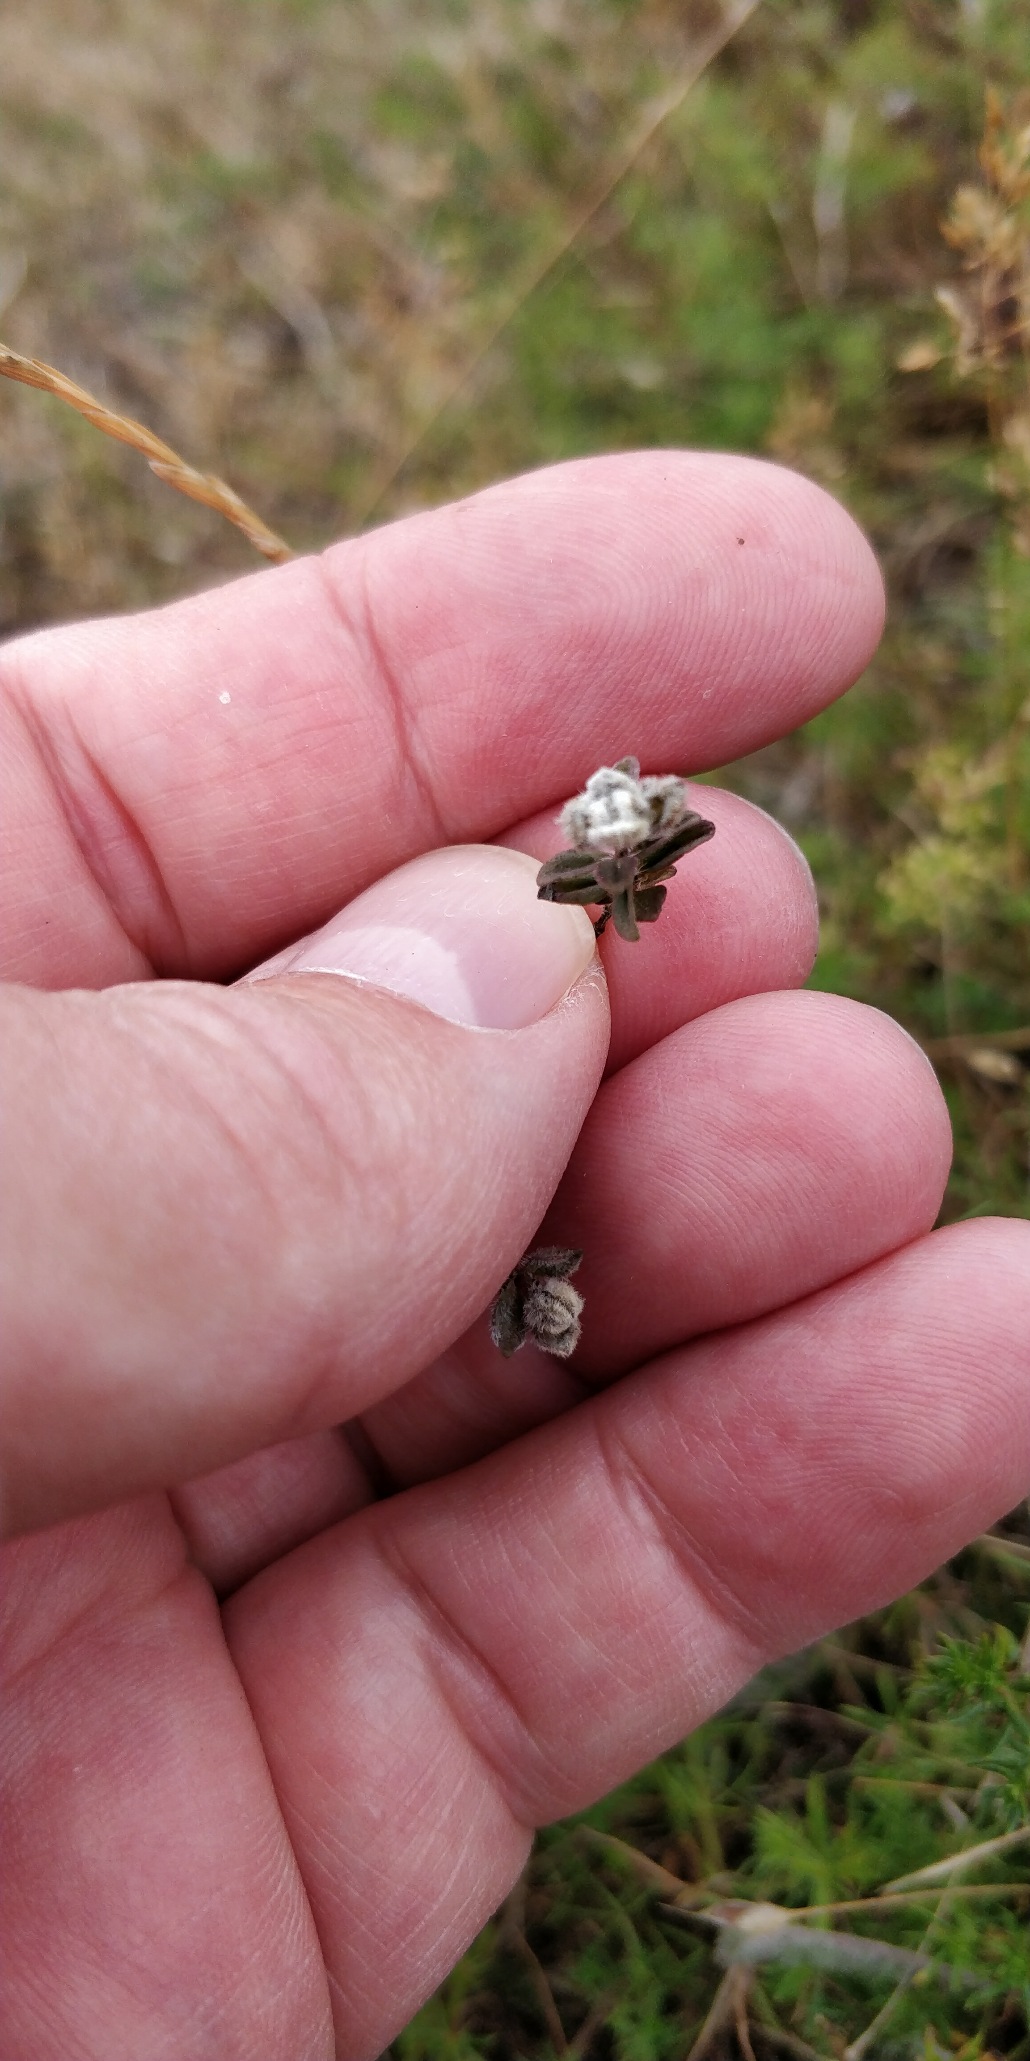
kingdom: Animalia
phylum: Arthropoda
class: Arachnida
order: Trombidiformes
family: Eriophyidae
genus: Aceria
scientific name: Aceria thomasi
